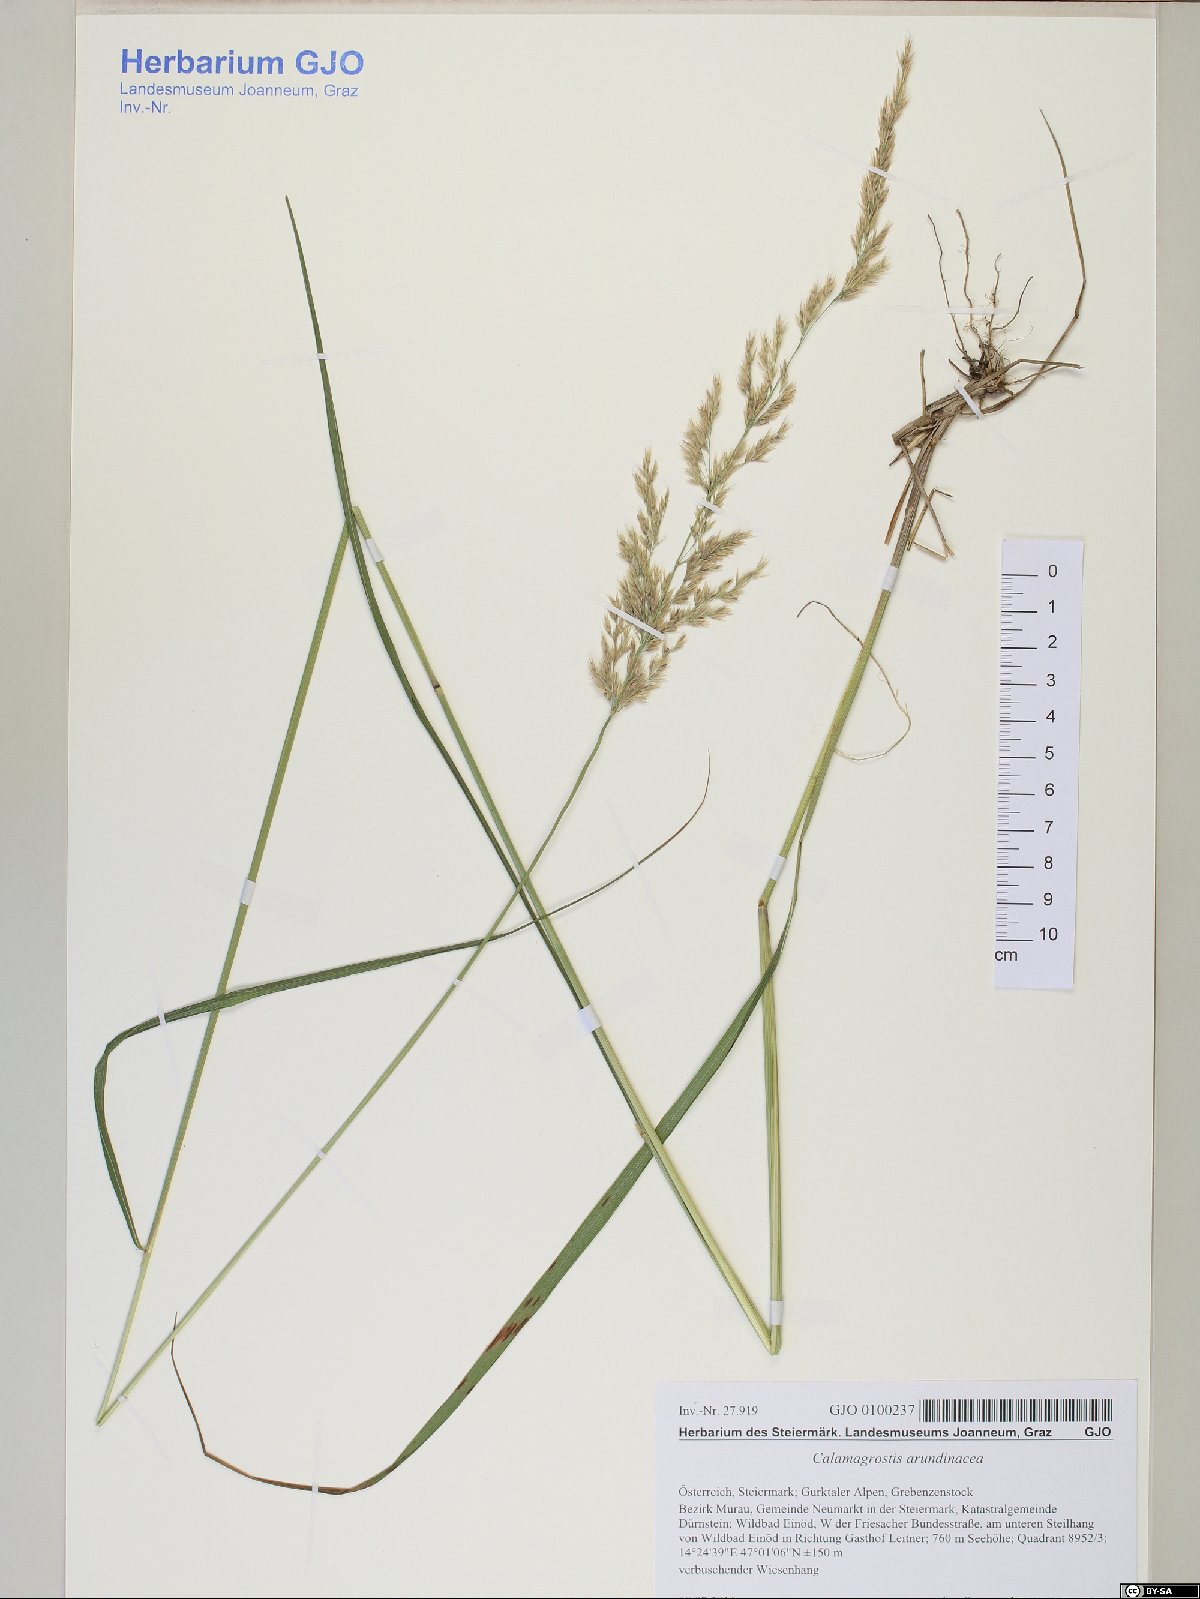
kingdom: Plantae
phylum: Tracheophyta
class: Liliopsida
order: Poales
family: Poaceae
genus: Calamagrostis
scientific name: Calamagrostis arundinacea
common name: Metskastik
